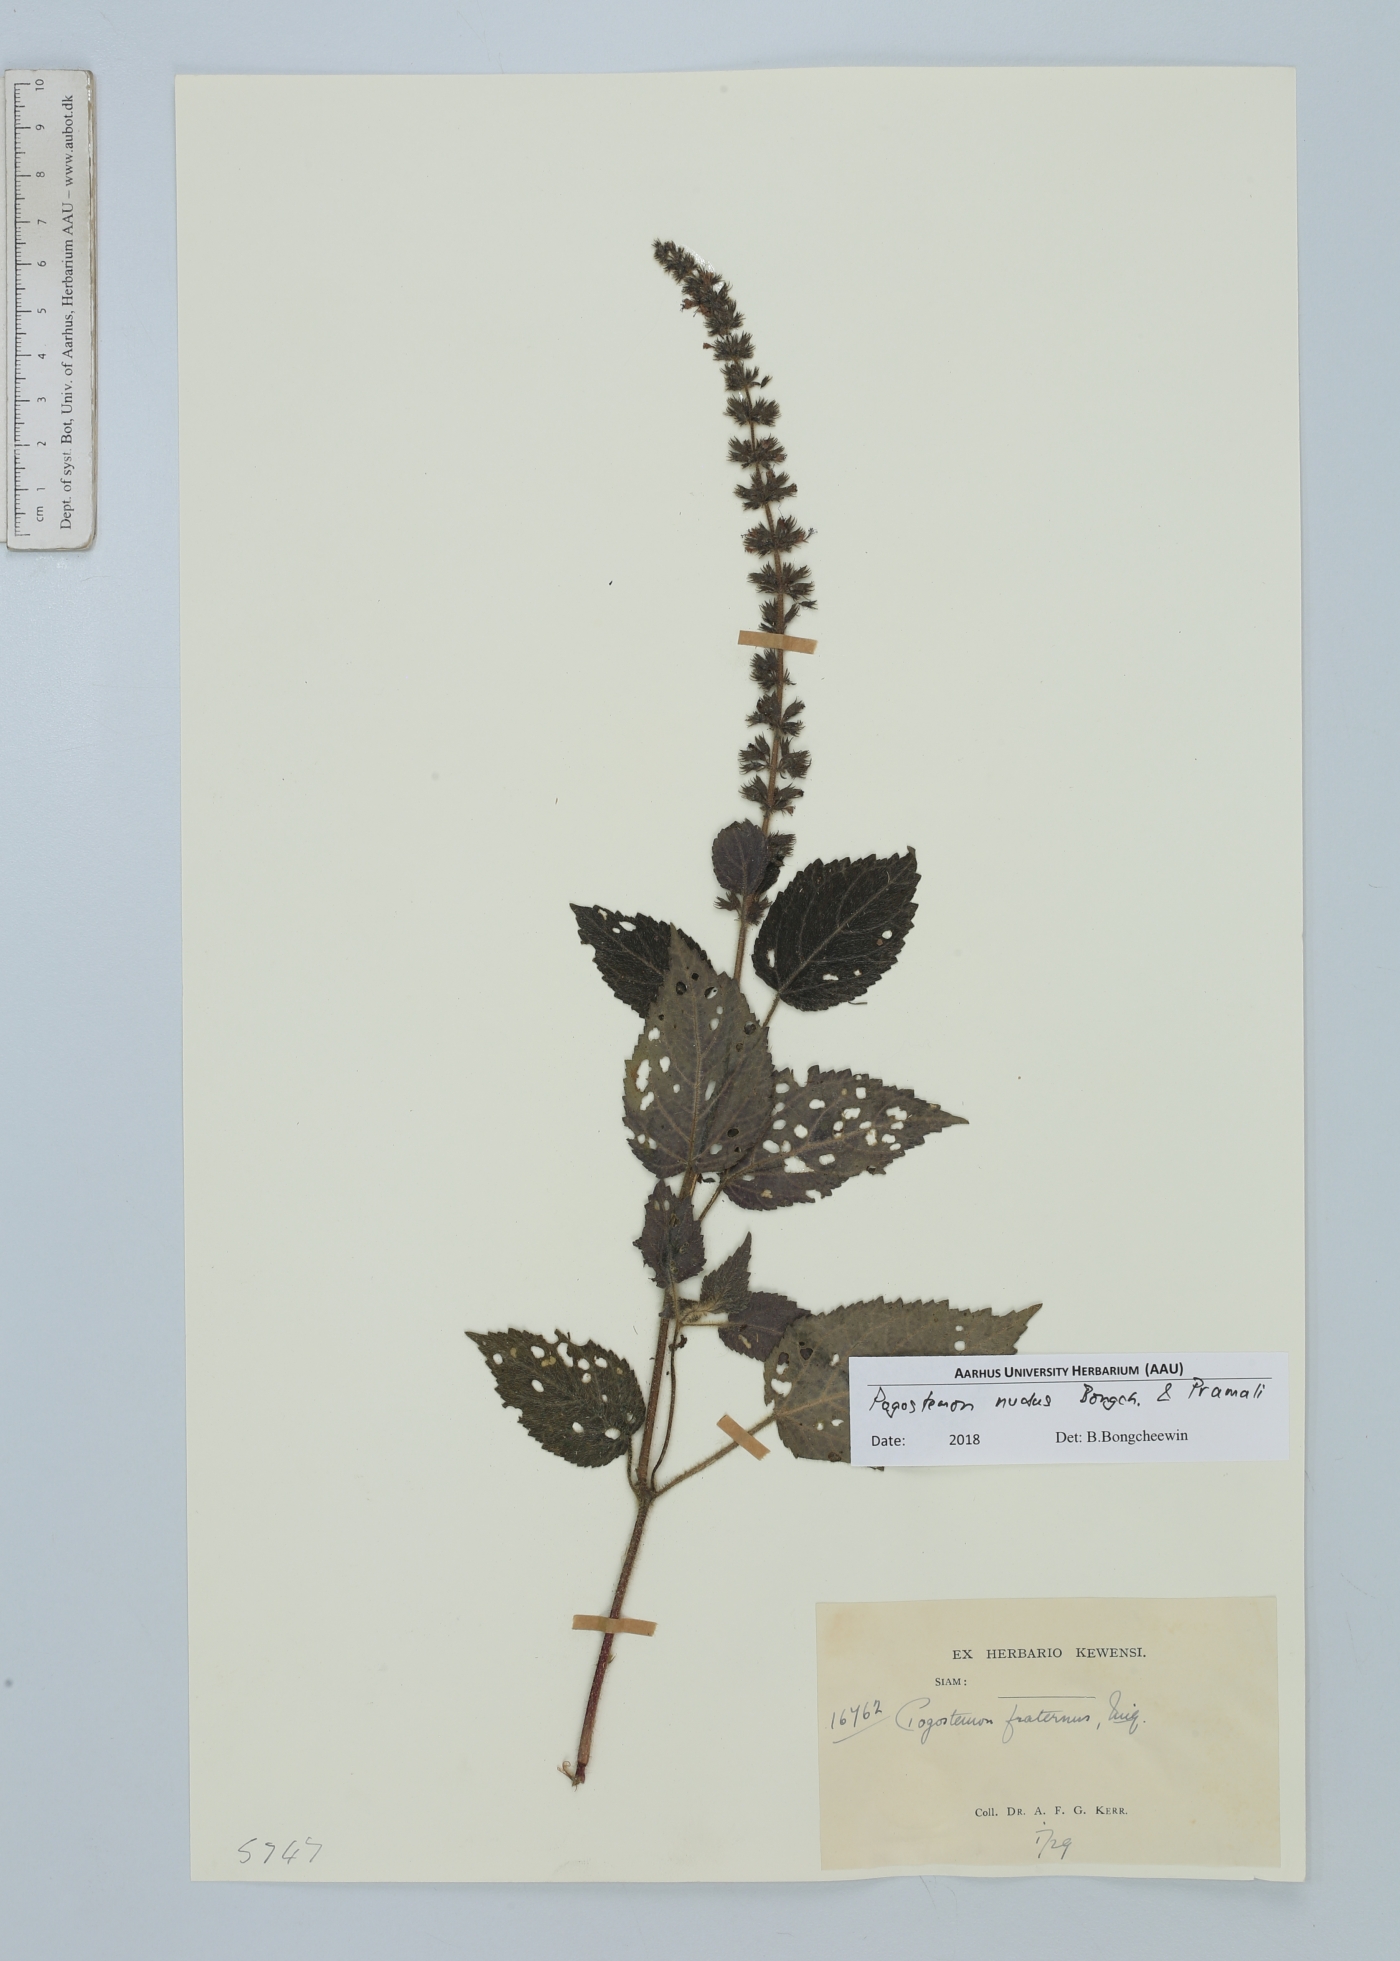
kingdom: Plantae
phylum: Tracheophyta
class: Magnoliopsida
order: Lamiales
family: Lamiaceae
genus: Pogostemon
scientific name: Pogostemon nudus
